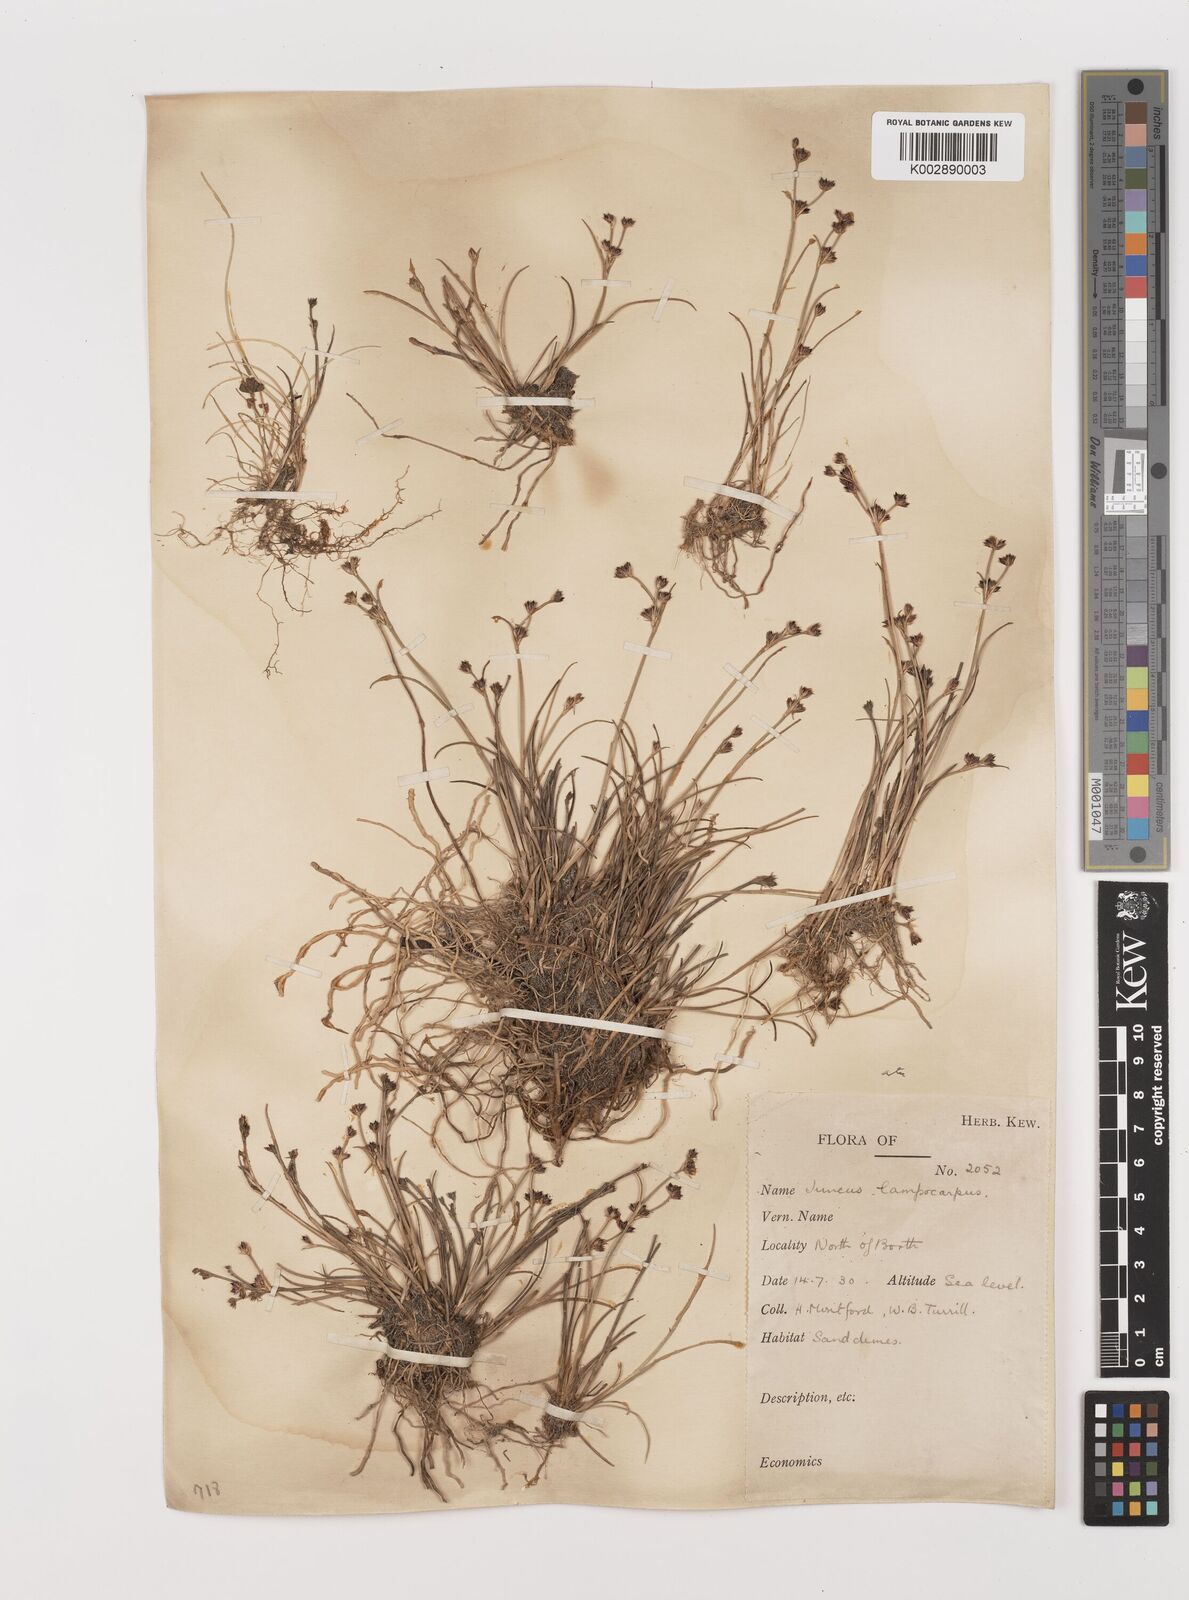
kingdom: Plantae
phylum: Tracheophyta
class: Liliopsida
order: Poales
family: Juncaceae
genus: Juncus
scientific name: Juncus articulatus
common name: Jointed rush
